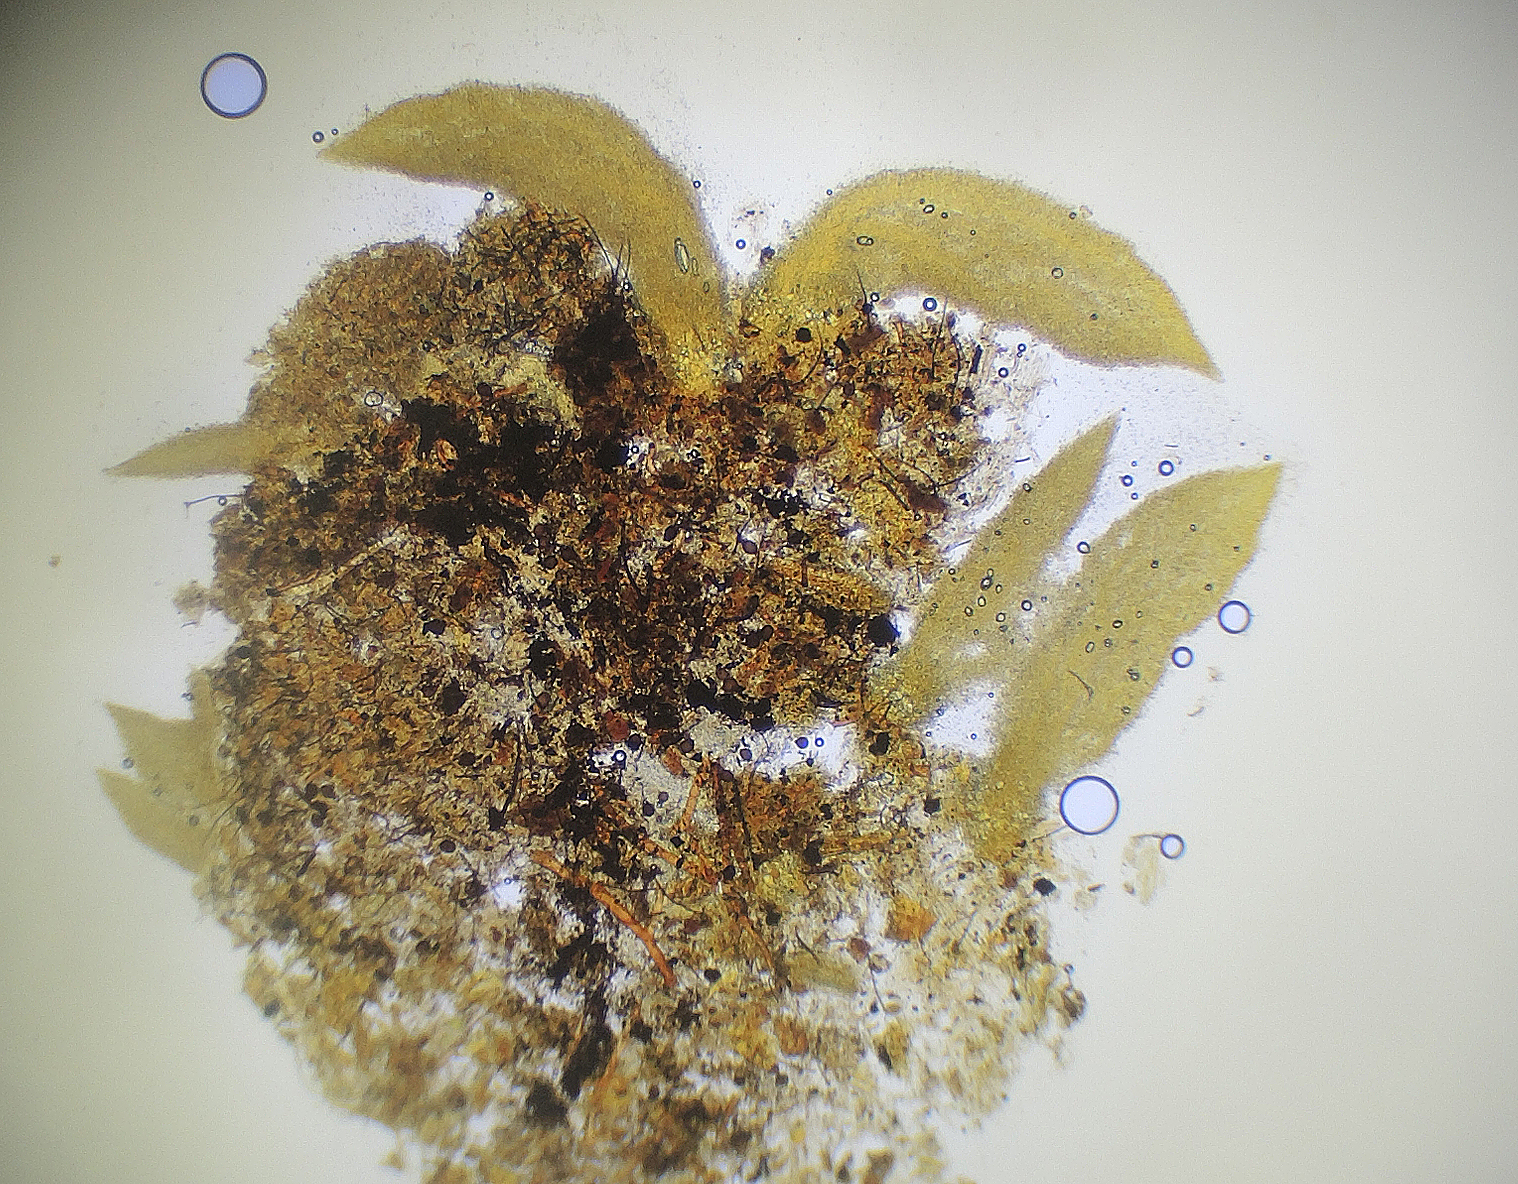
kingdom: Fungi
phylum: Basidiomycota
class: Agaricomycetes
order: Agaricales
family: Clavariaceae
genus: Mucronella
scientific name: Mucronella calva
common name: hvid hængepig
